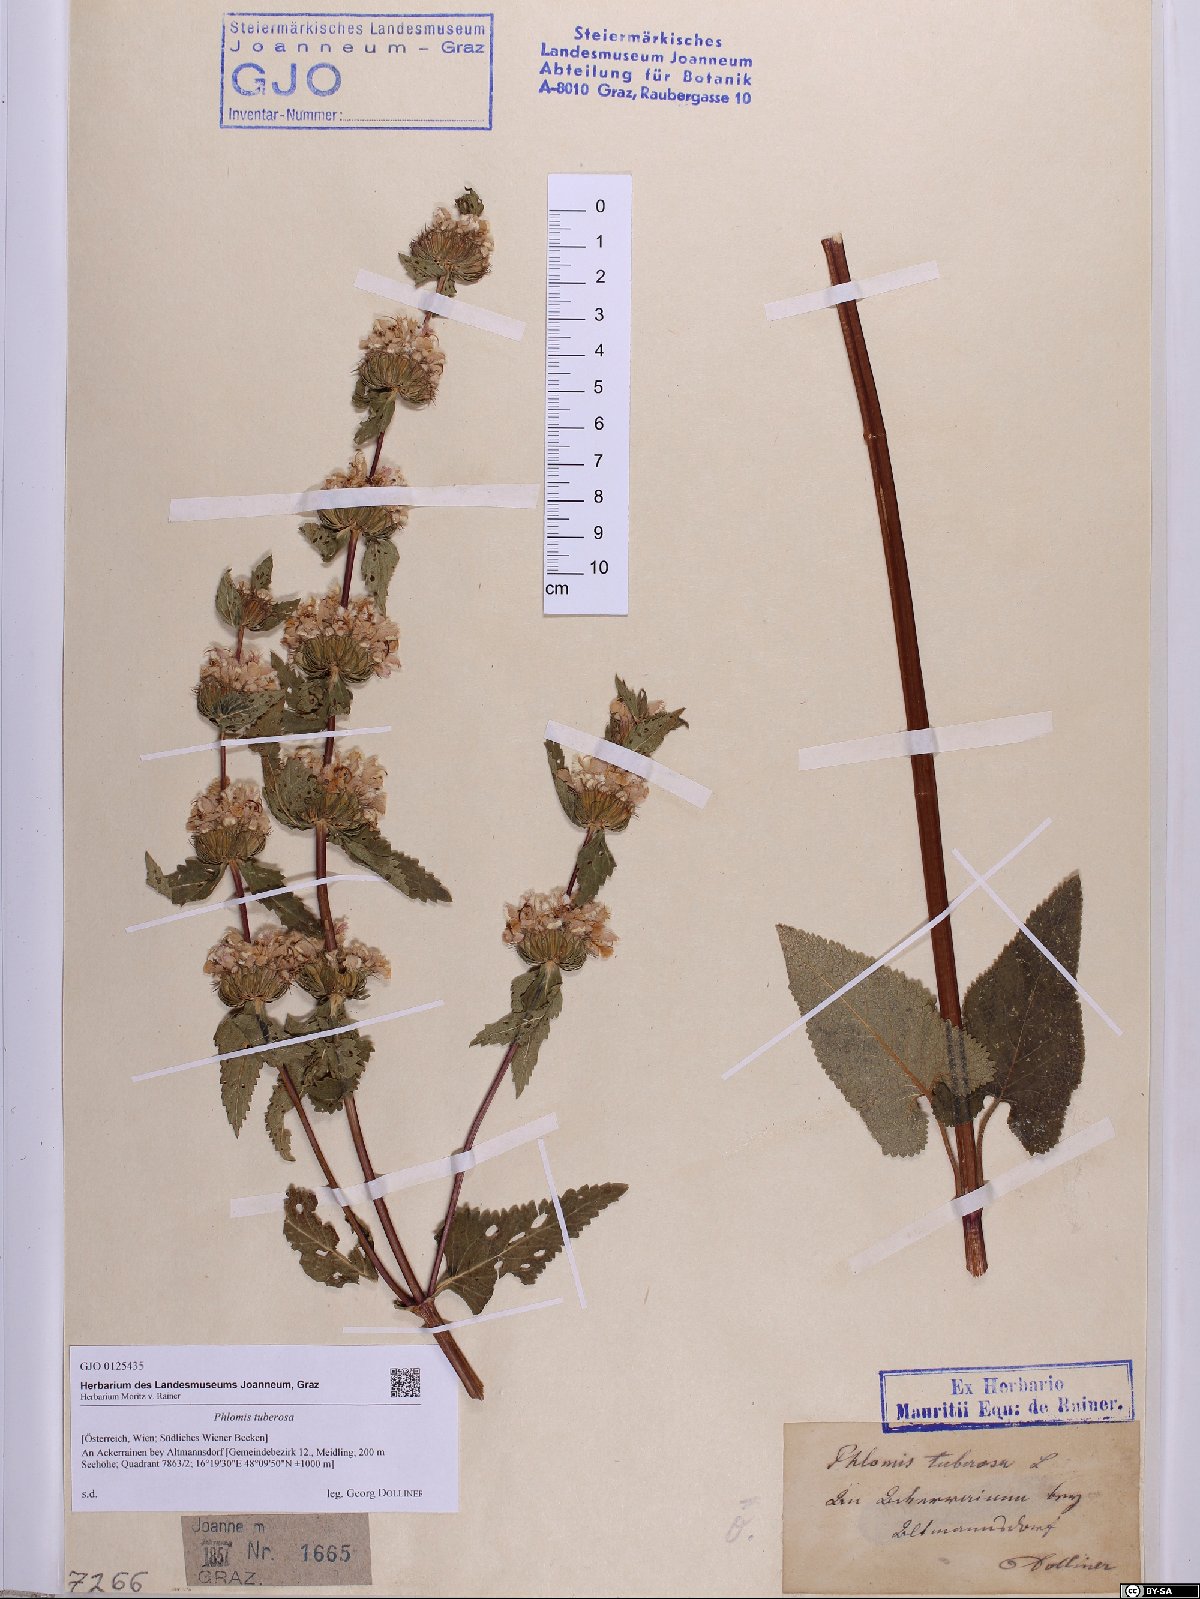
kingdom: Plantae
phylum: Tracheophyta
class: Magnoliopsida
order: Lamiales
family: Lamiaceae
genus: Phlomoides
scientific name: Phlomoides tuberosa
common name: Tuberous jerusalem sage
